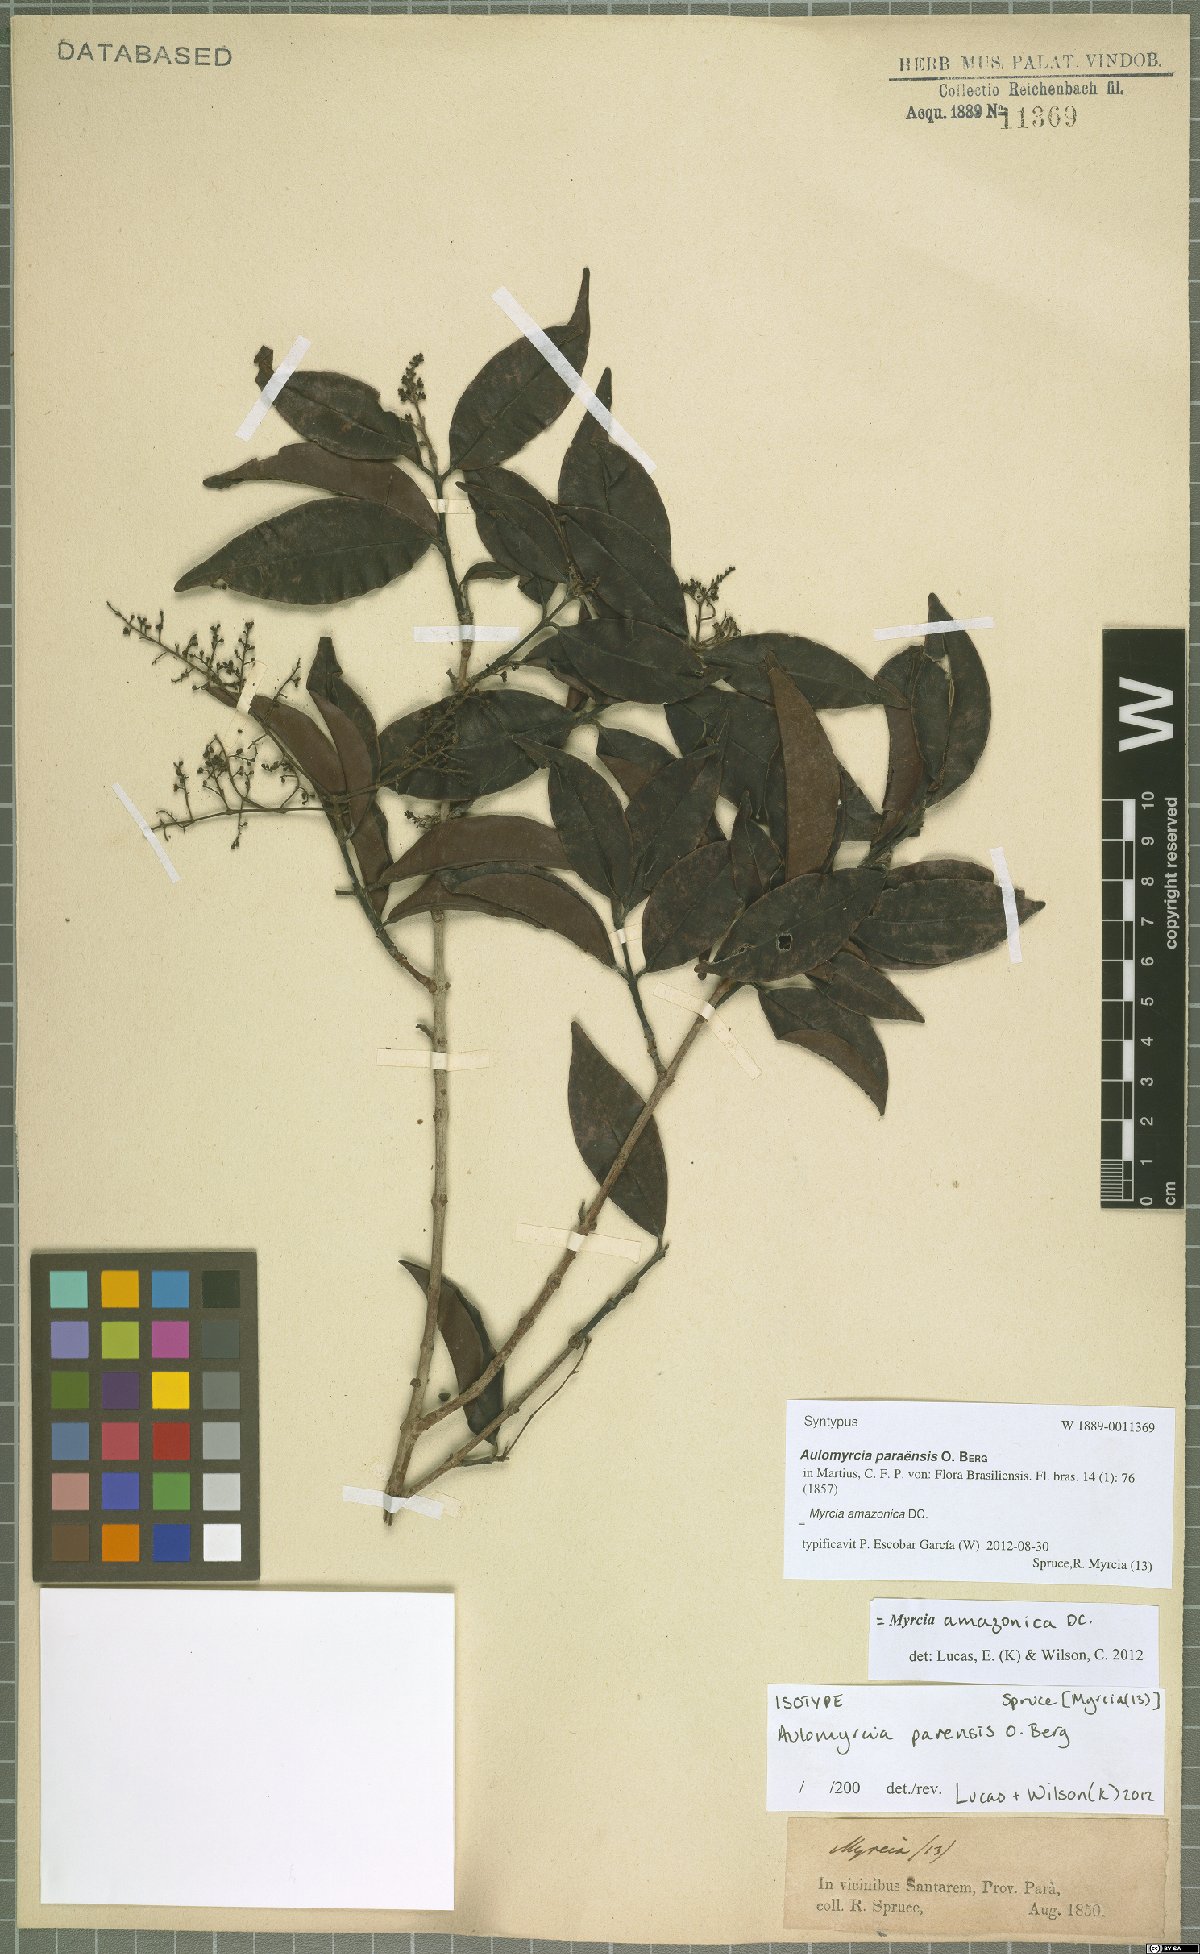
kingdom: Plantae
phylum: Tracheophyta
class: Magnoliopsida
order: Myrtales
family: Myrtaceae
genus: Myrcia
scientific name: Myrcia amazonica
